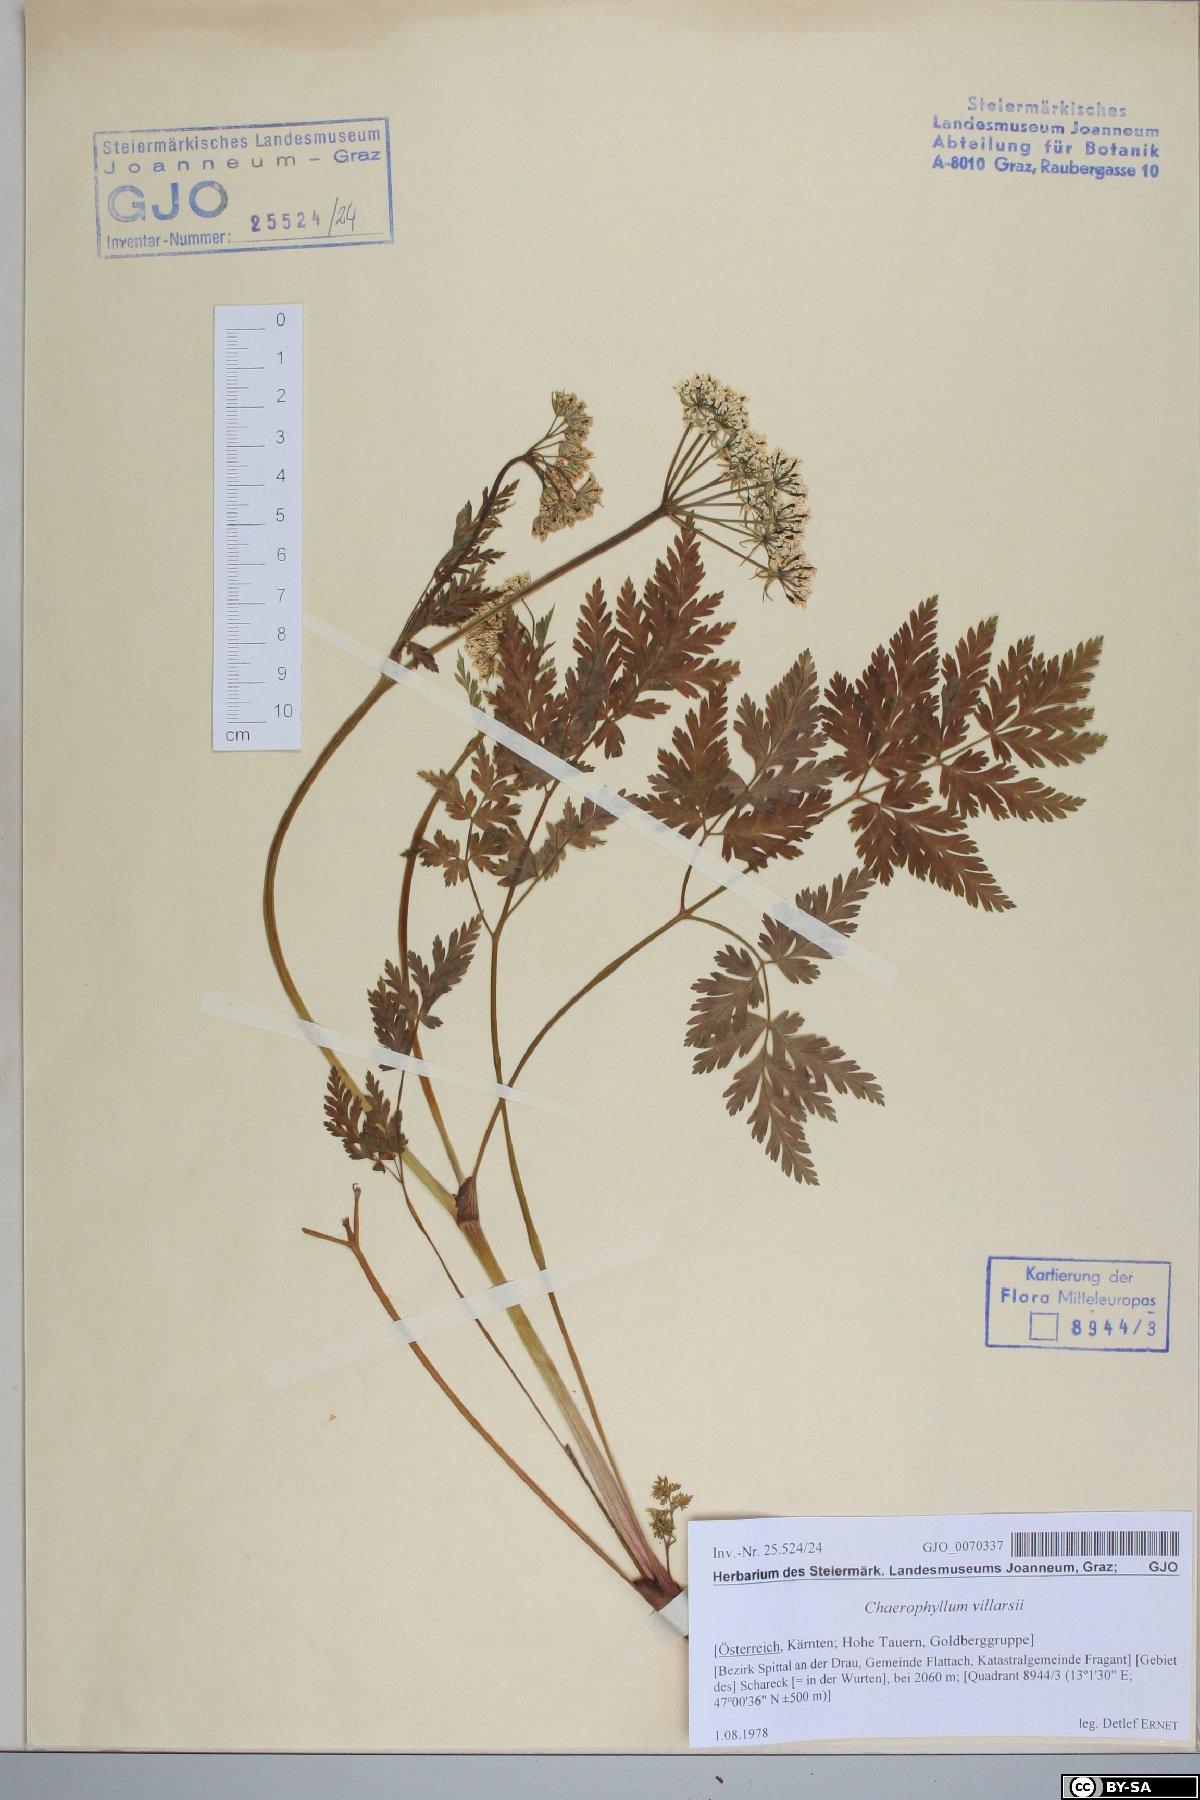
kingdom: Plantae
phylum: Tracheophyta
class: Magnoliopsida
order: Apiales
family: Apiaceae
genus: Chaerophyllum
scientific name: Chaerophyllum villarsii
